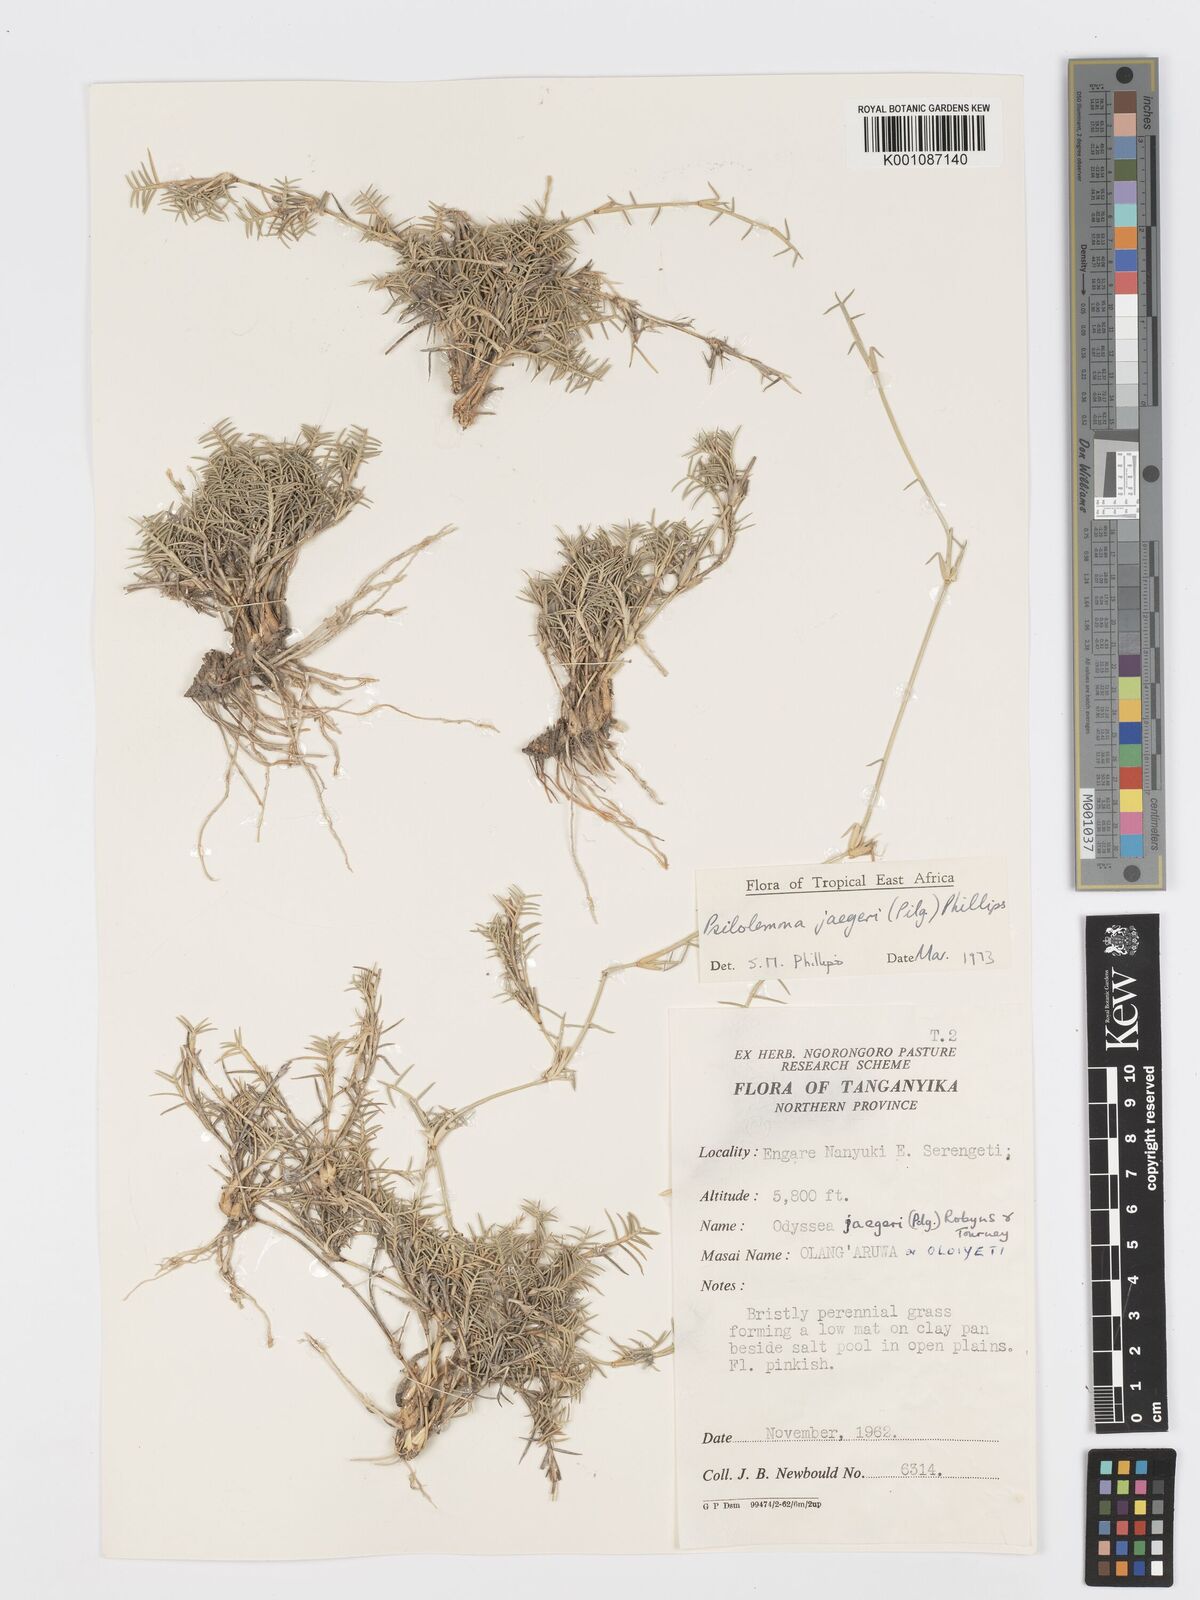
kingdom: Plantae
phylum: Tracheophyta
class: Liliopsida
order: Poales
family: Poaceae
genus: Psilolemma
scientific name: Psilolemma jaegeri
